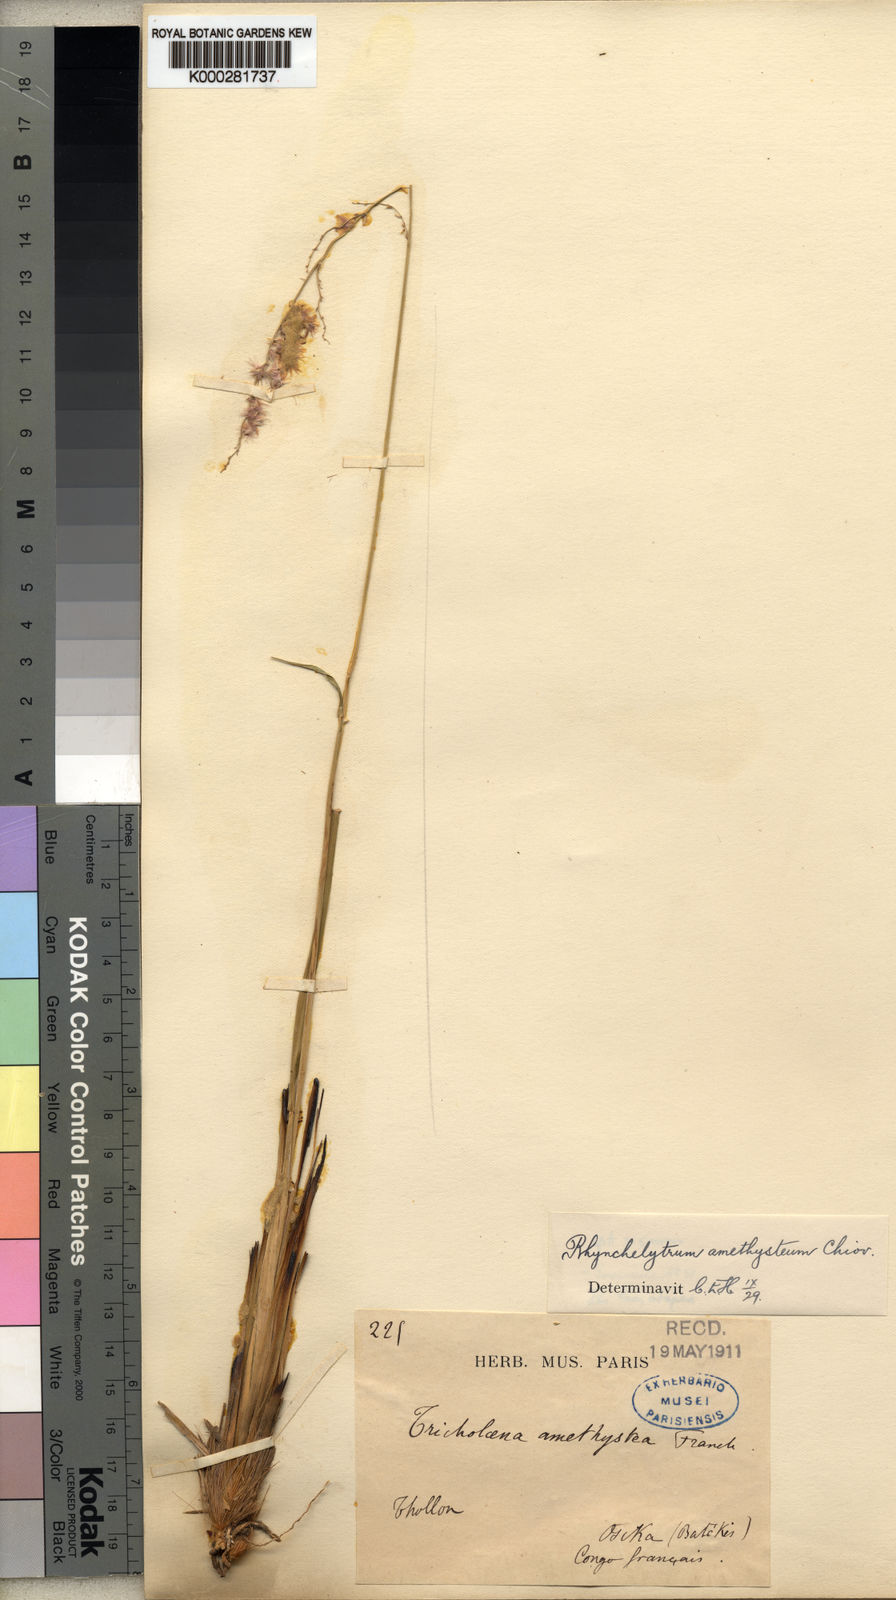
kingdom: Plantae
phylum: Tracheophyta
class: Liliopsida
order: Poales
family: Poaceae
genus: Melinis
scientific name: Melinis amethystea
